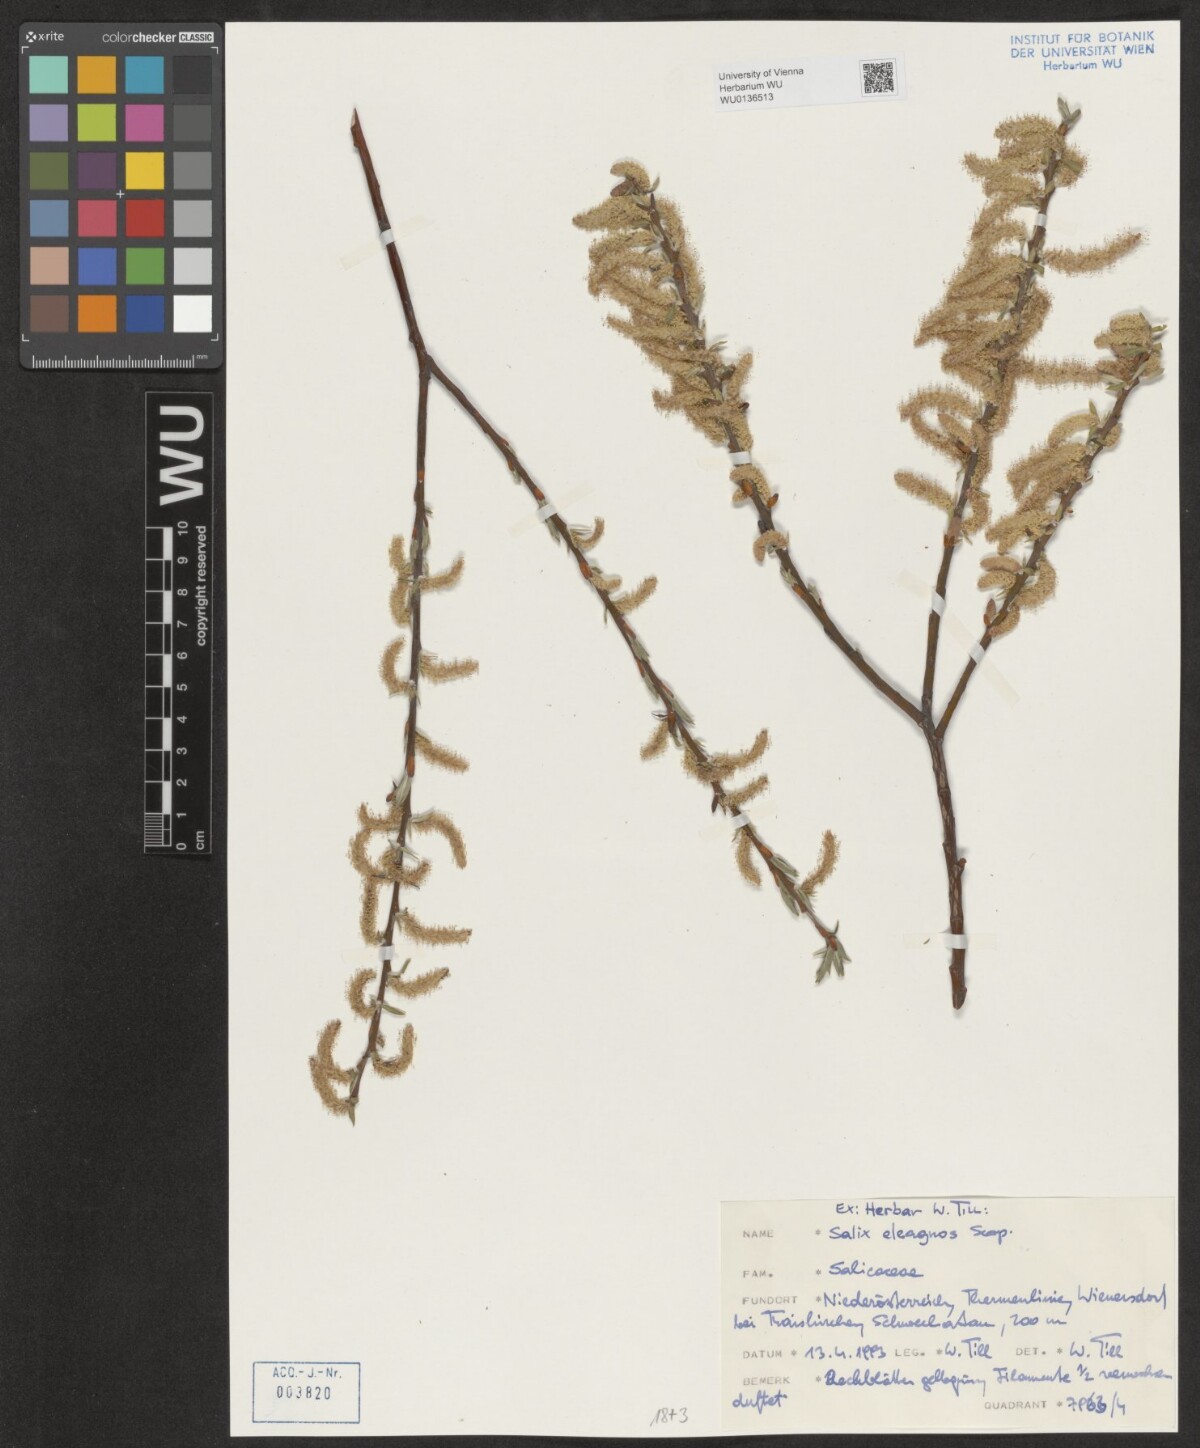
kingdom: Plantae
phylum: Tracheophyta
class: Magnoliopsida
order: Malpighiales
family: Salicaceae
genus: Salix
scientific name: Salix eleagnos
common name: Elaeagnus willow
